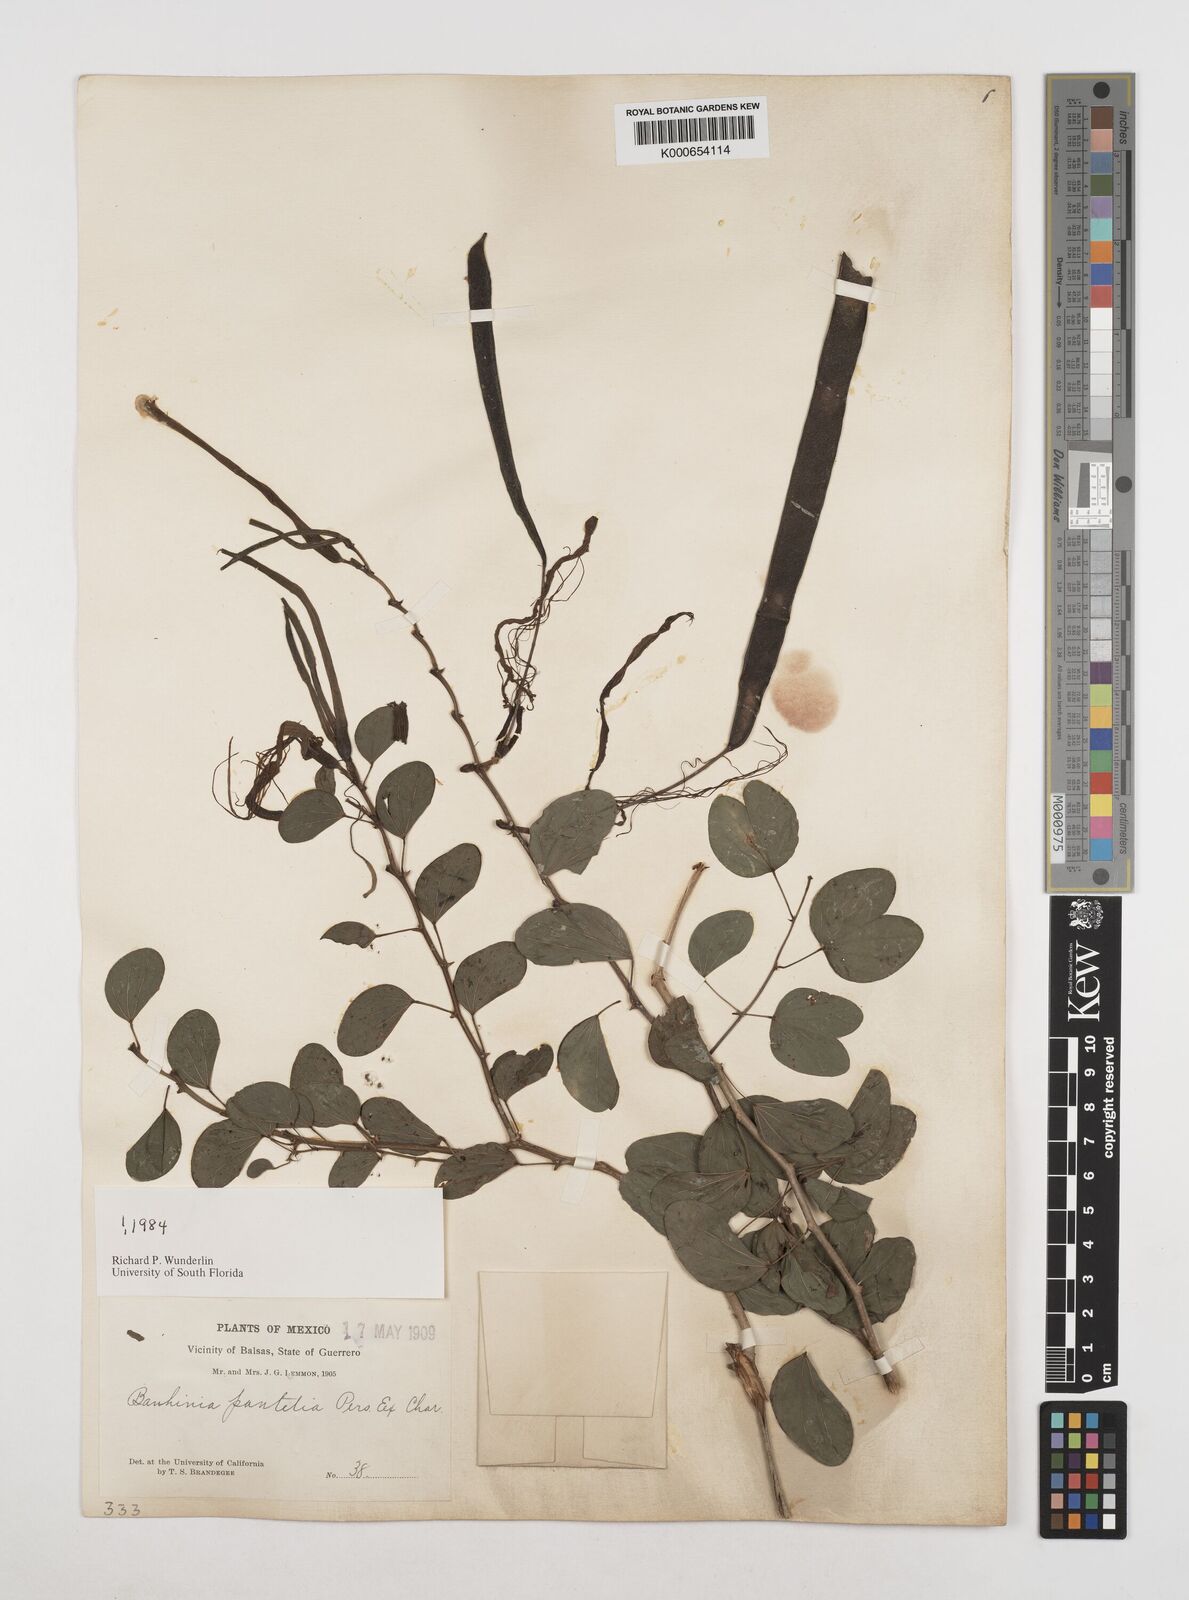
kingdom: Plantae
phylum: Tracheophyta
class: Magnoliopsida
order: Fabales
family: Fabaceae
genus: Bauhinia
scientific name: Bauhinia pauletia
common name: Railway-fence bauhinia
